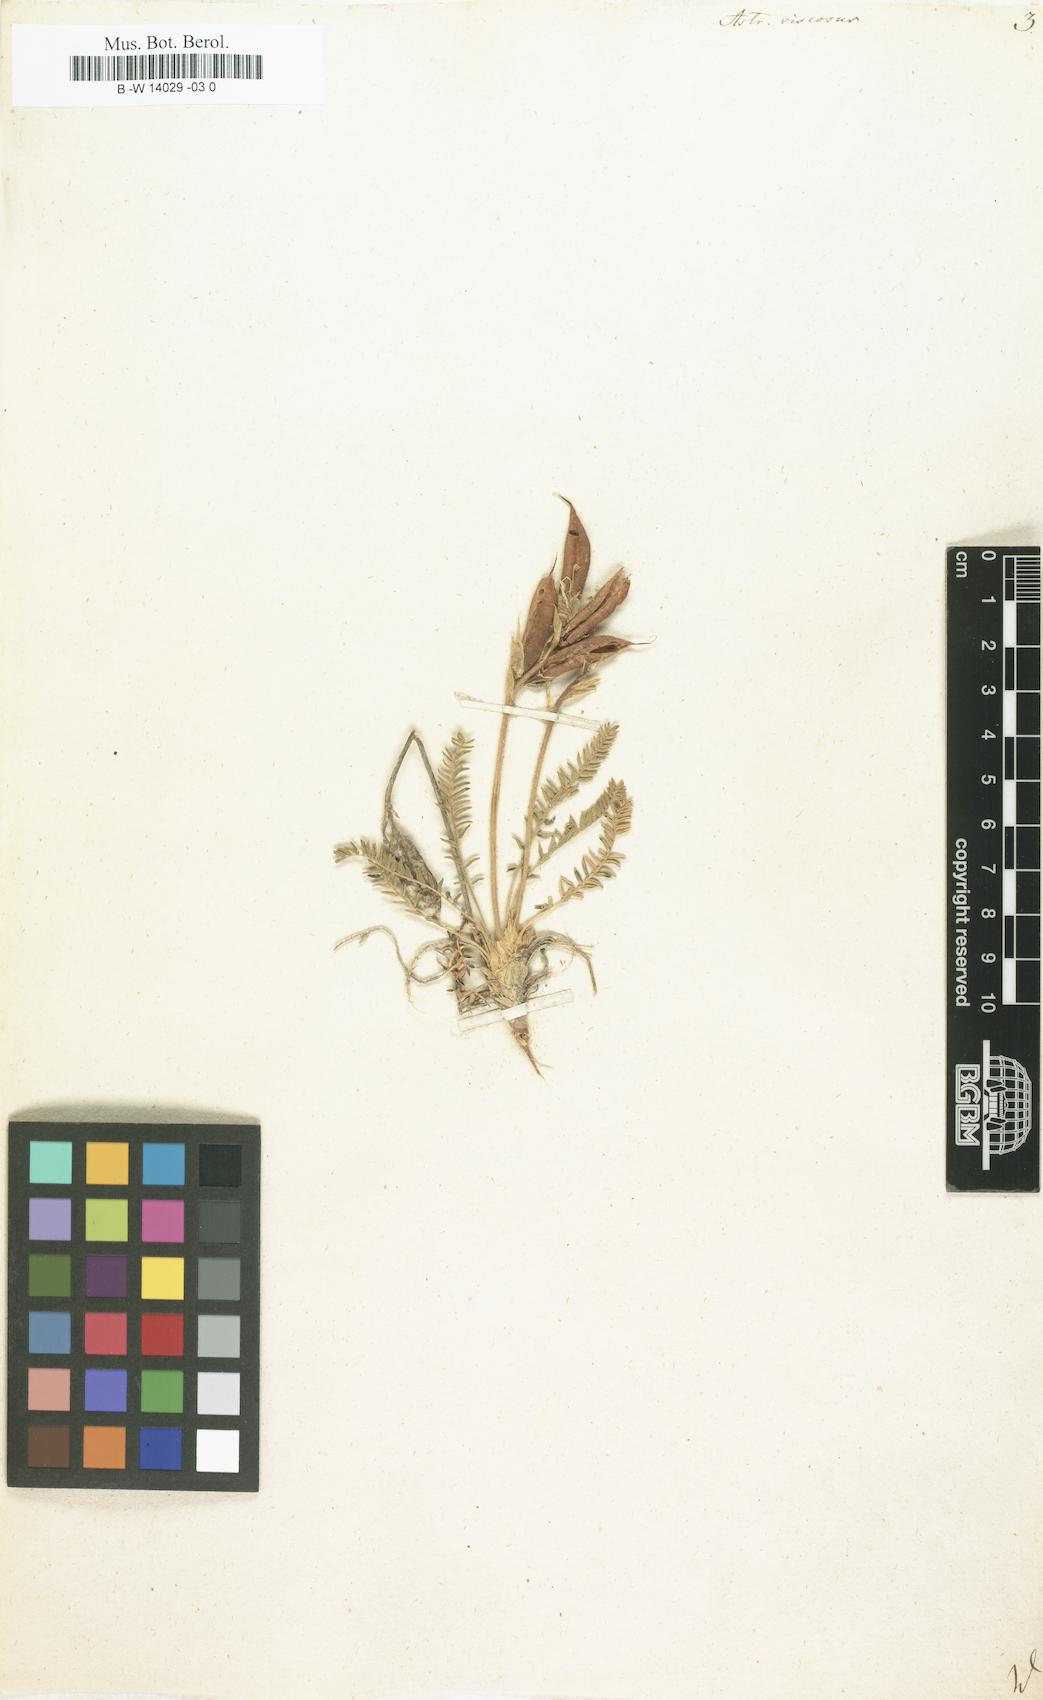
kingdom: Plantae
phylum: Tracheophyta
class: Magnoliopsida
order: Fabales
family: Fabaceae
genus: Oxytropis
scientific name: Oxytropis fetida
